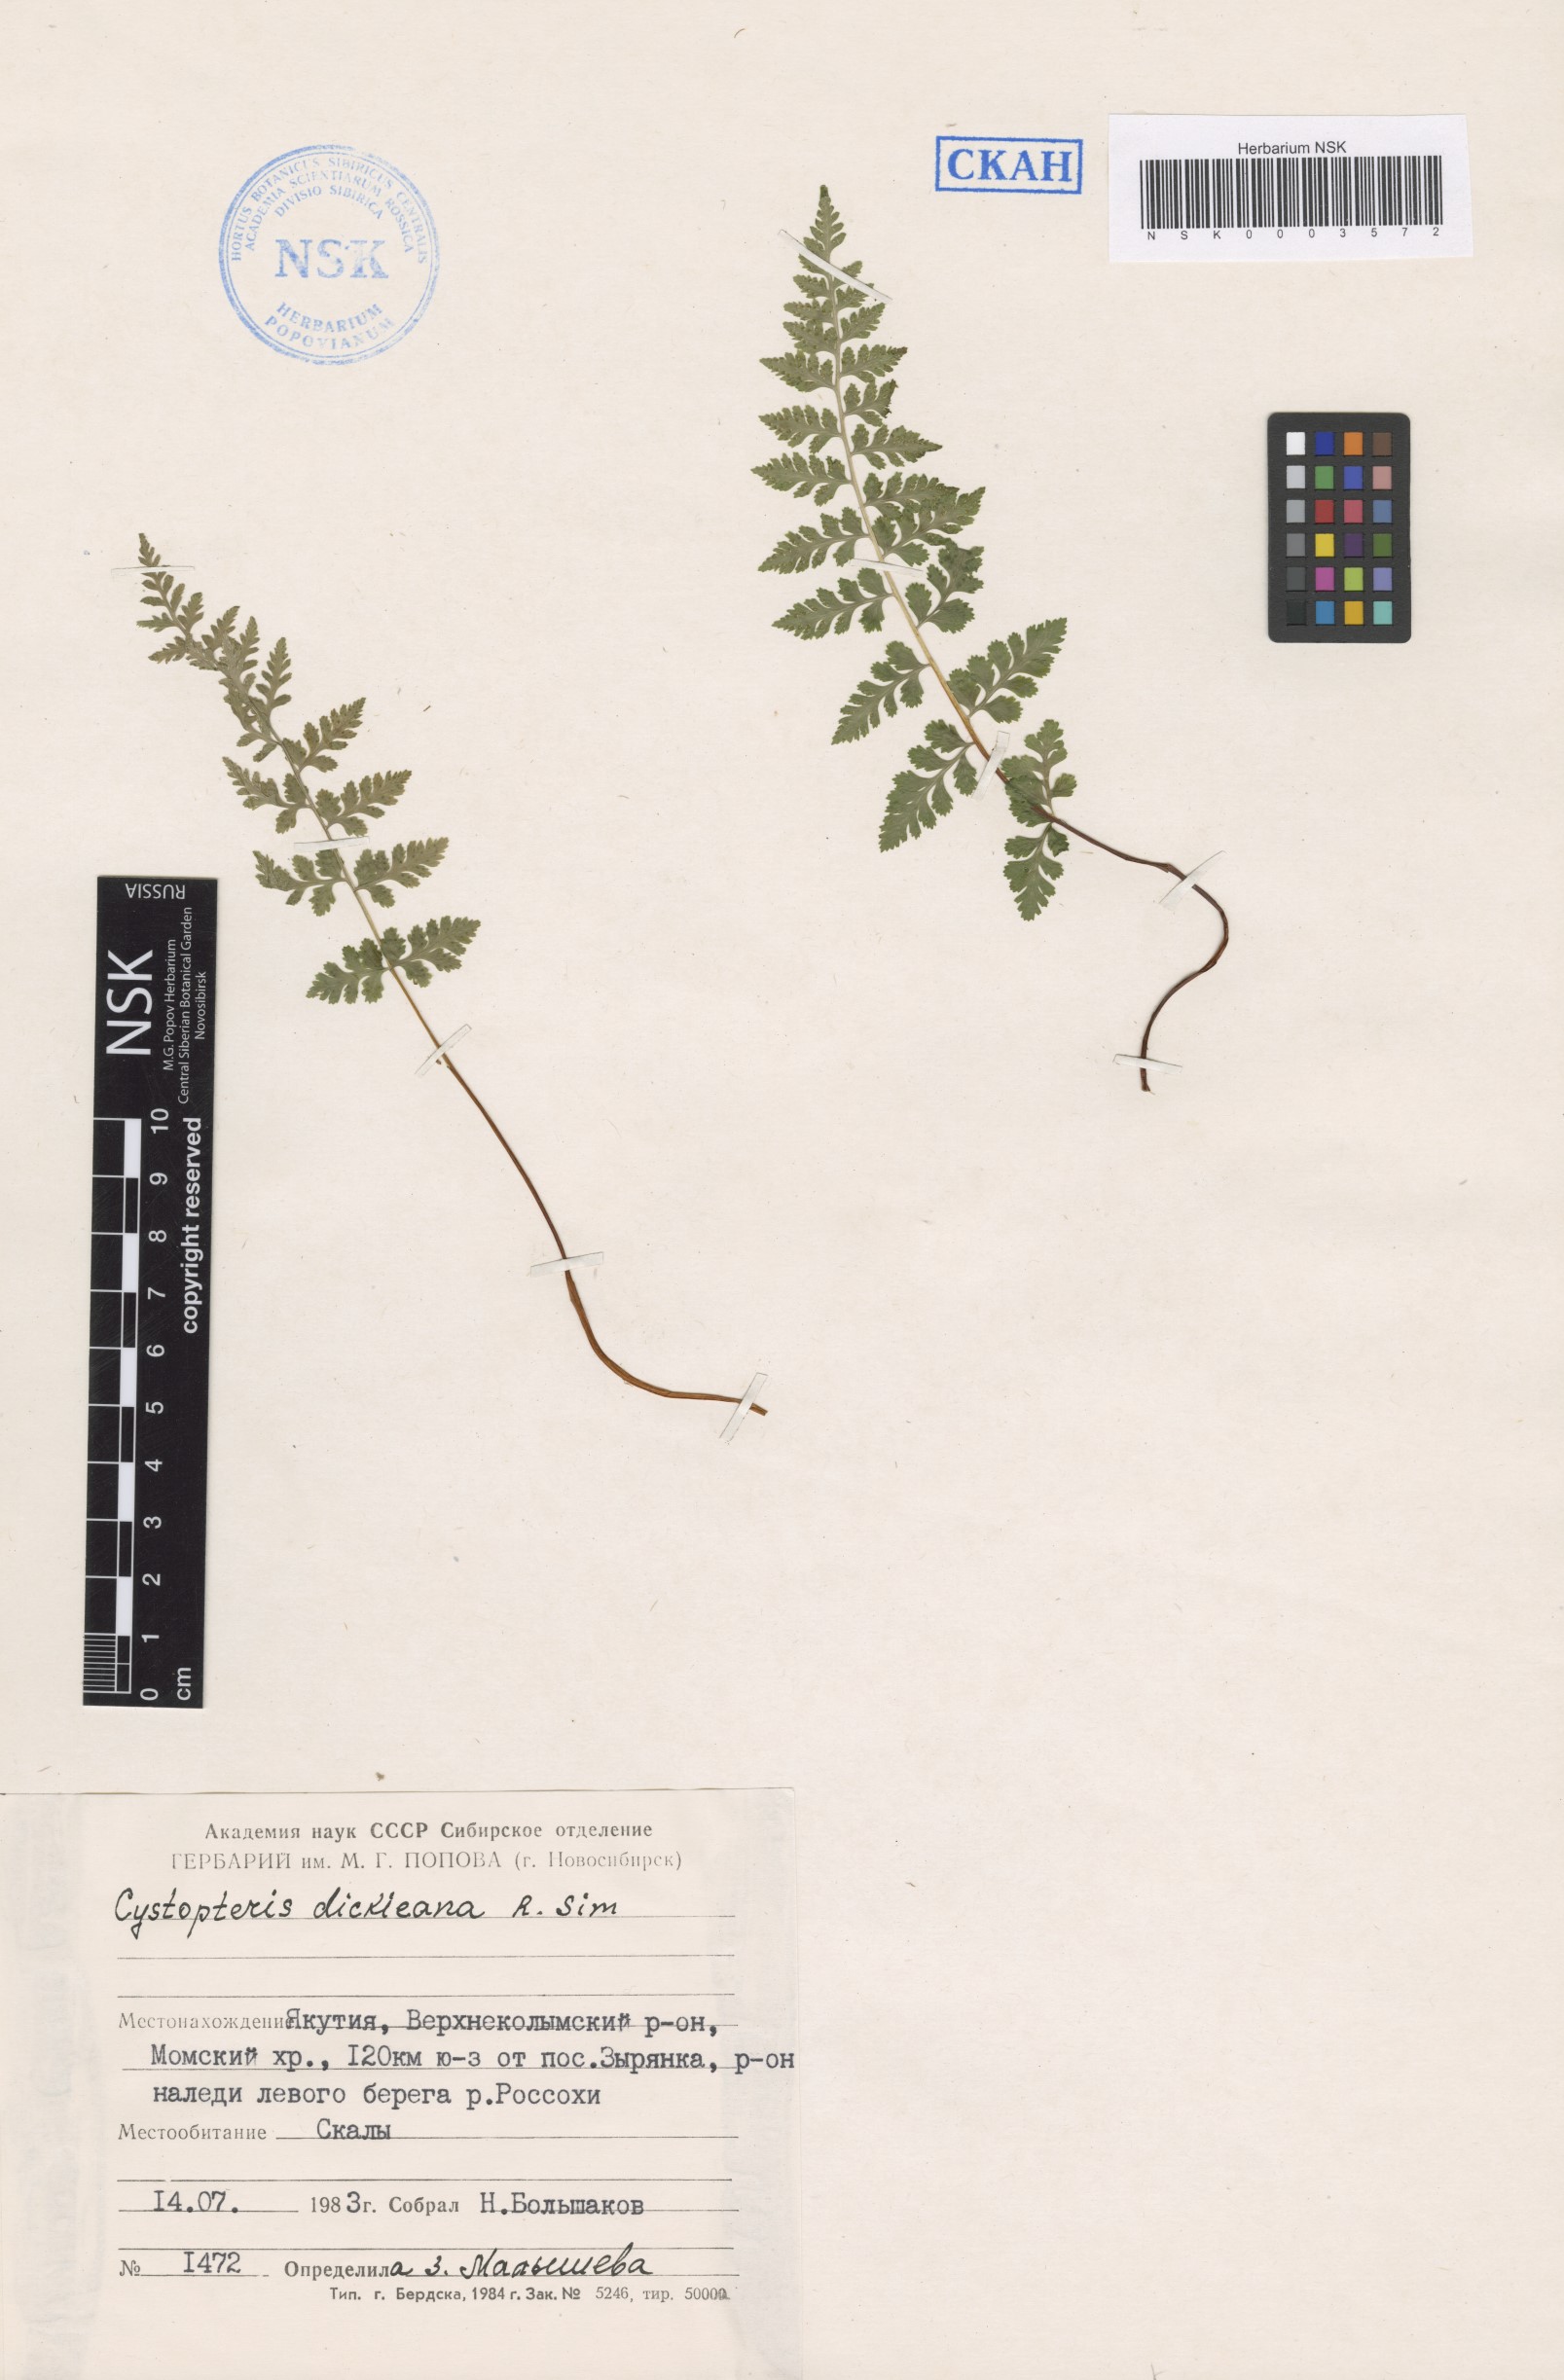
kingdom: Plantae
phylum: Tracheophyta
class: Polypodiopsida
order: Polypodiales
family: Cystopteridaceae
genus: Cystopteris
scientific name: Cystopteris dickieana
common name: Dickie's bladder-fern
